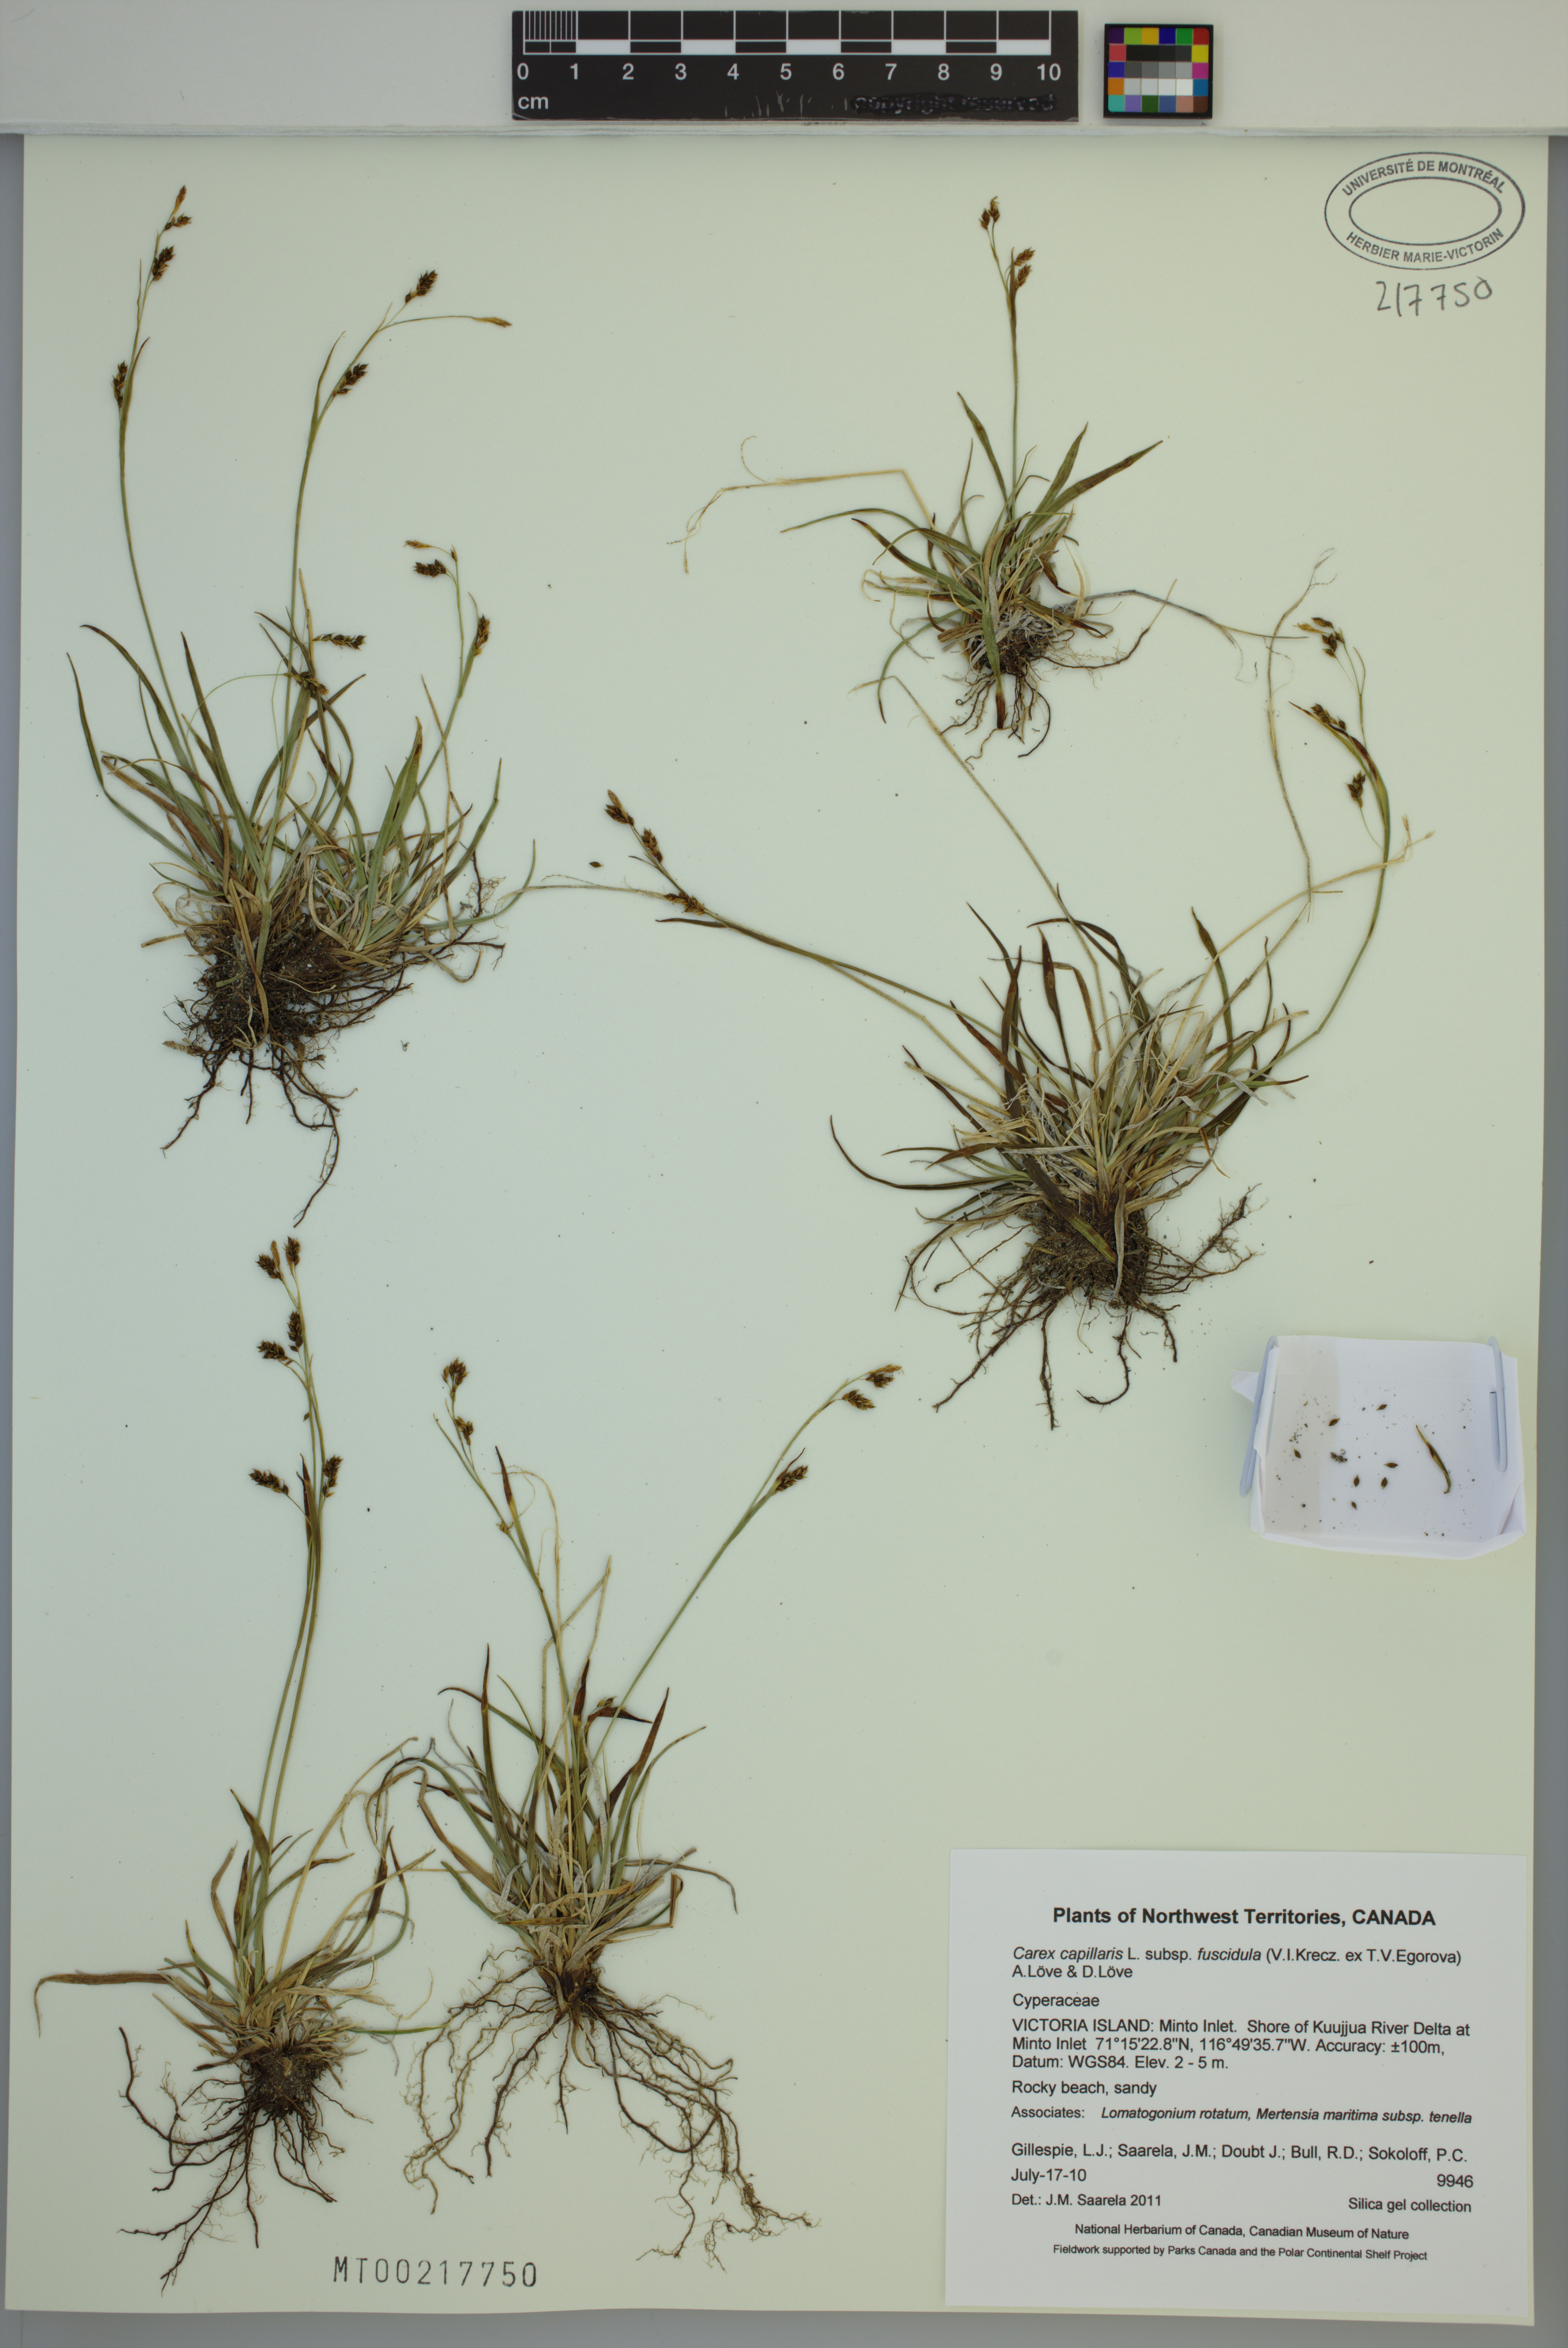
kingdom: Plantae
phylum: Tracheophyta
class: Liliopsida
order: Poales
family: Cyperaceae
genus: Carex
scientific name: Carex capillaris
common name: Hair sedge
